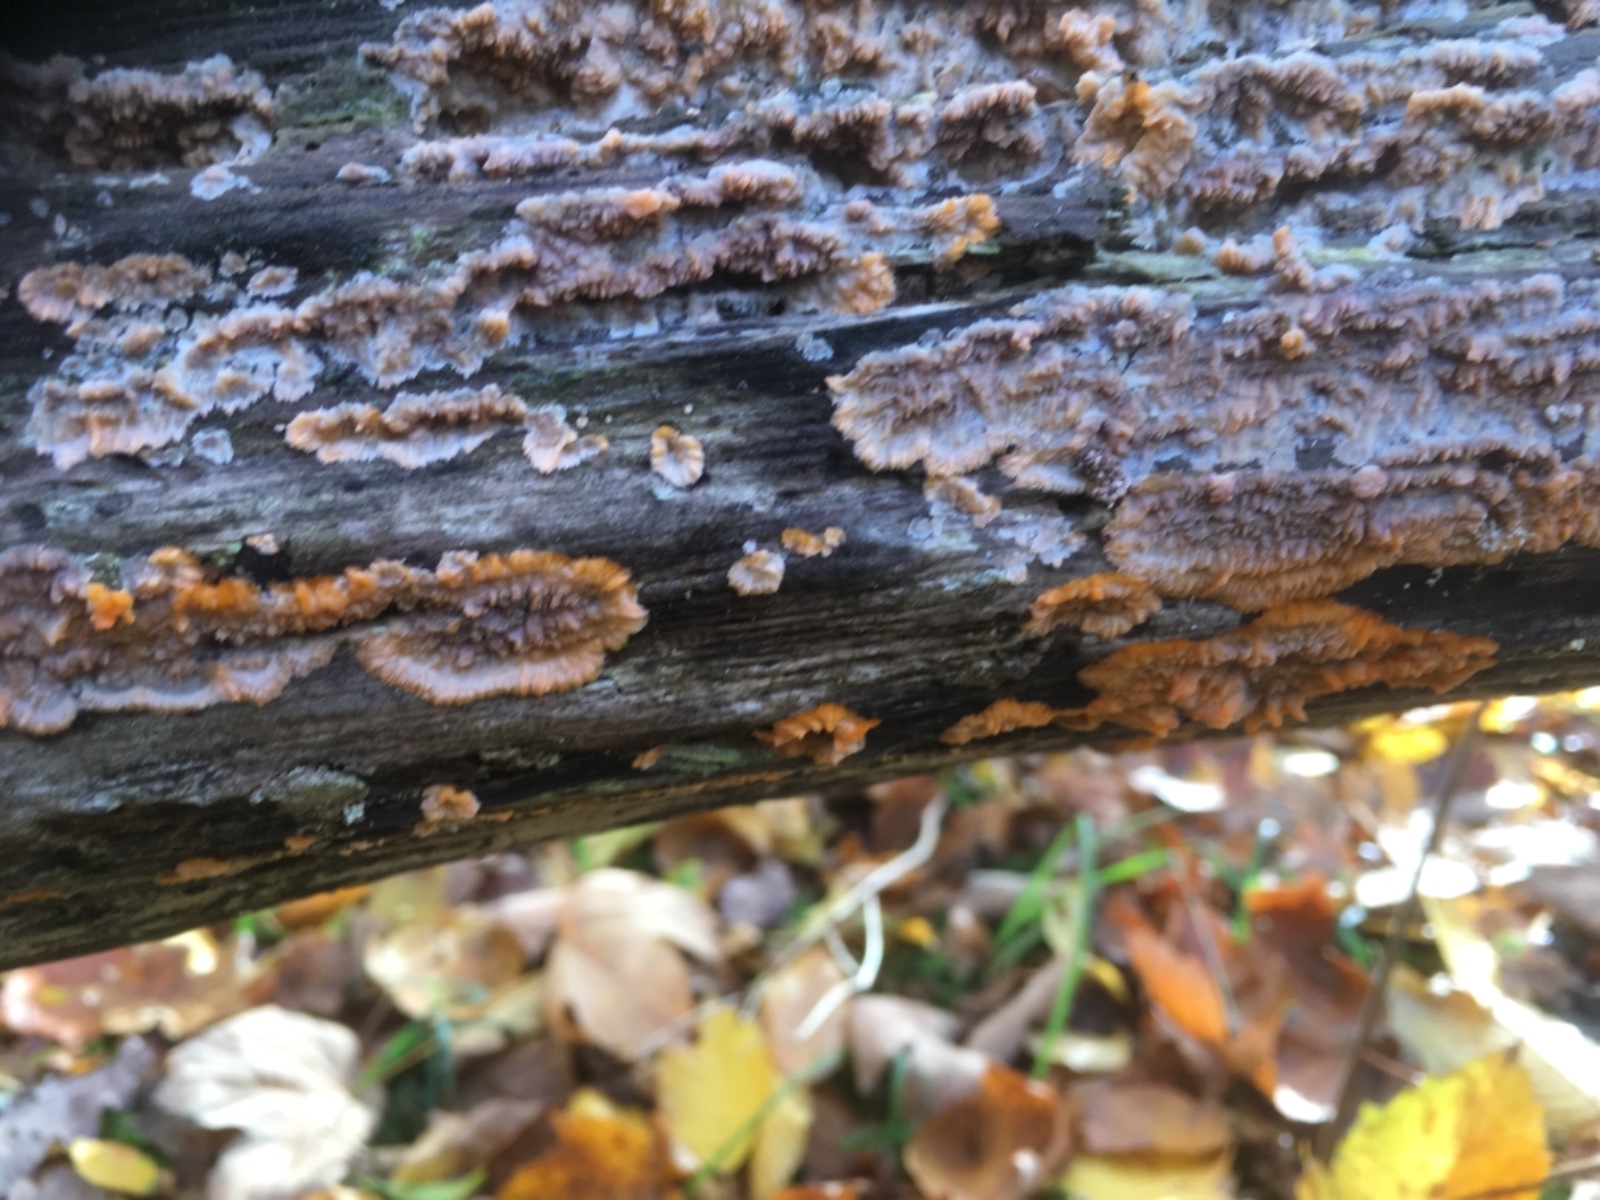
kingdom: Fungi
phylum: Basidiomycota
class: Agaricomycetes
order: Polyporales
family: Meruliaceae
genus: Phlebia
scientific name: Phlebia radiata
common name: stråle-åresvamp
